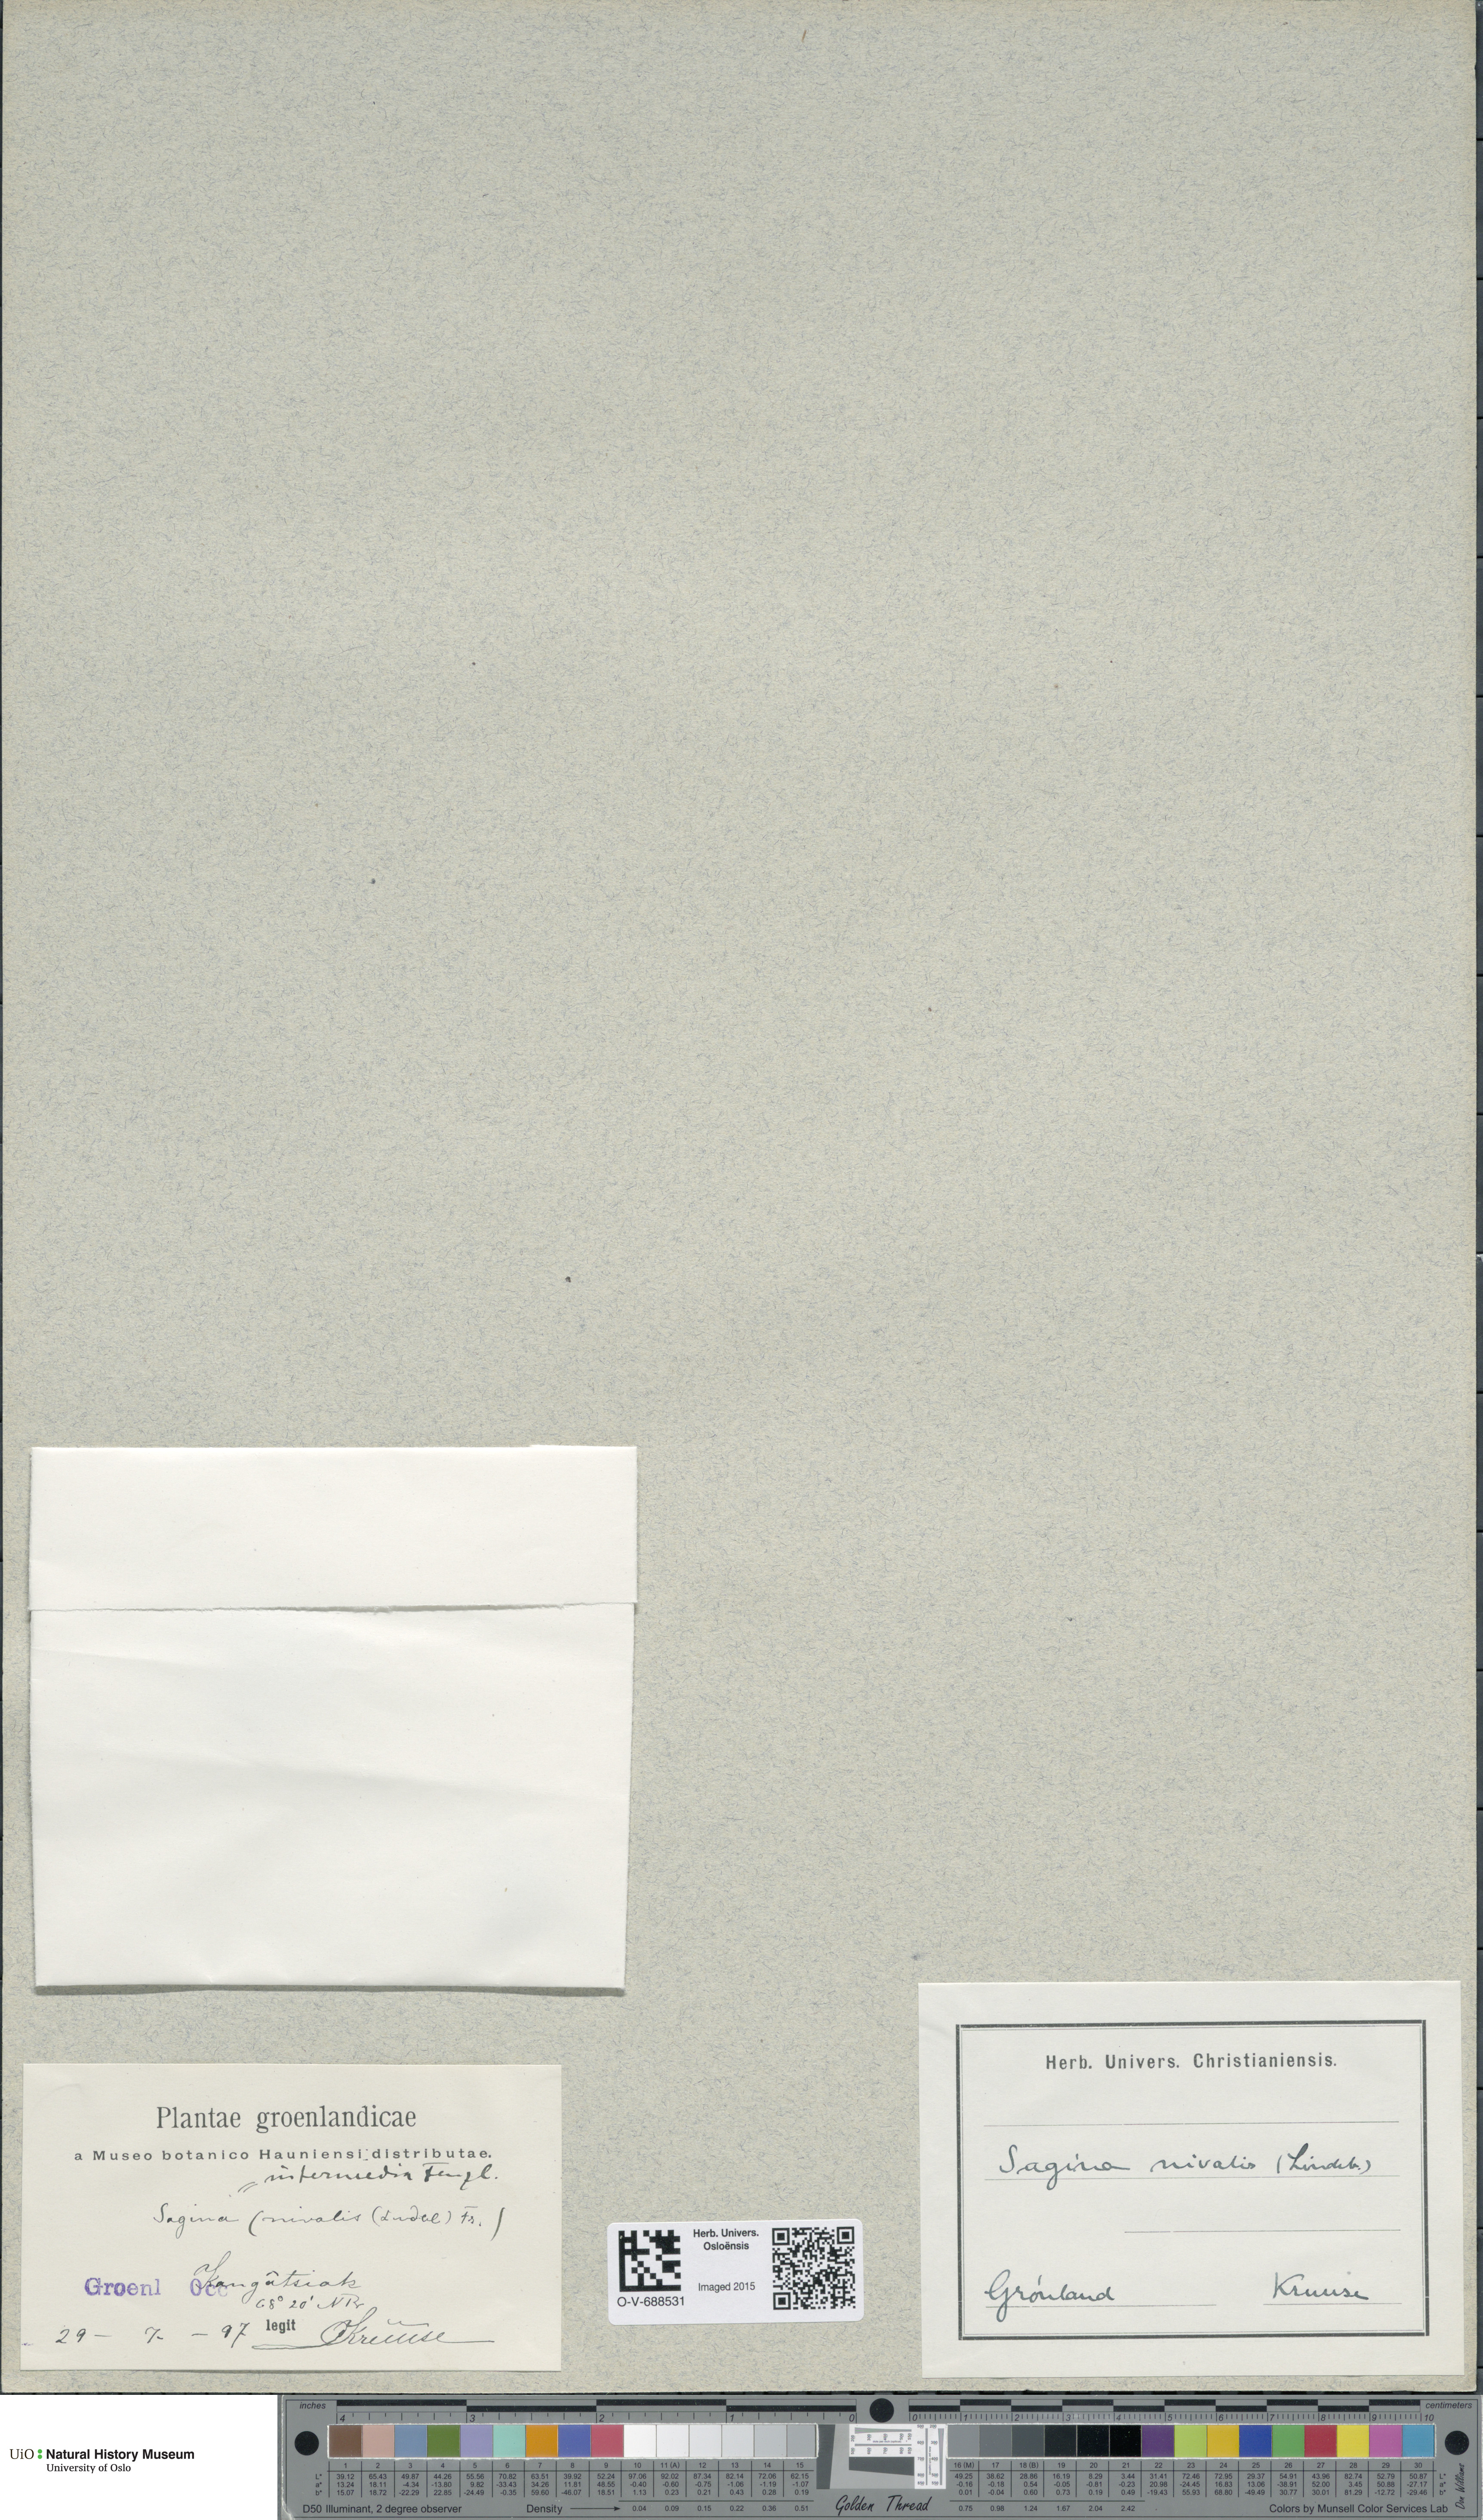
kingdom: Plantae
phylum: Tracheophyta
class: Magnoliopsida
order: Caryophyllales
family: Caryophyllaceae
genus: Sagina
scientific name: Sagina nivalis
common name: Snow pearlwort
